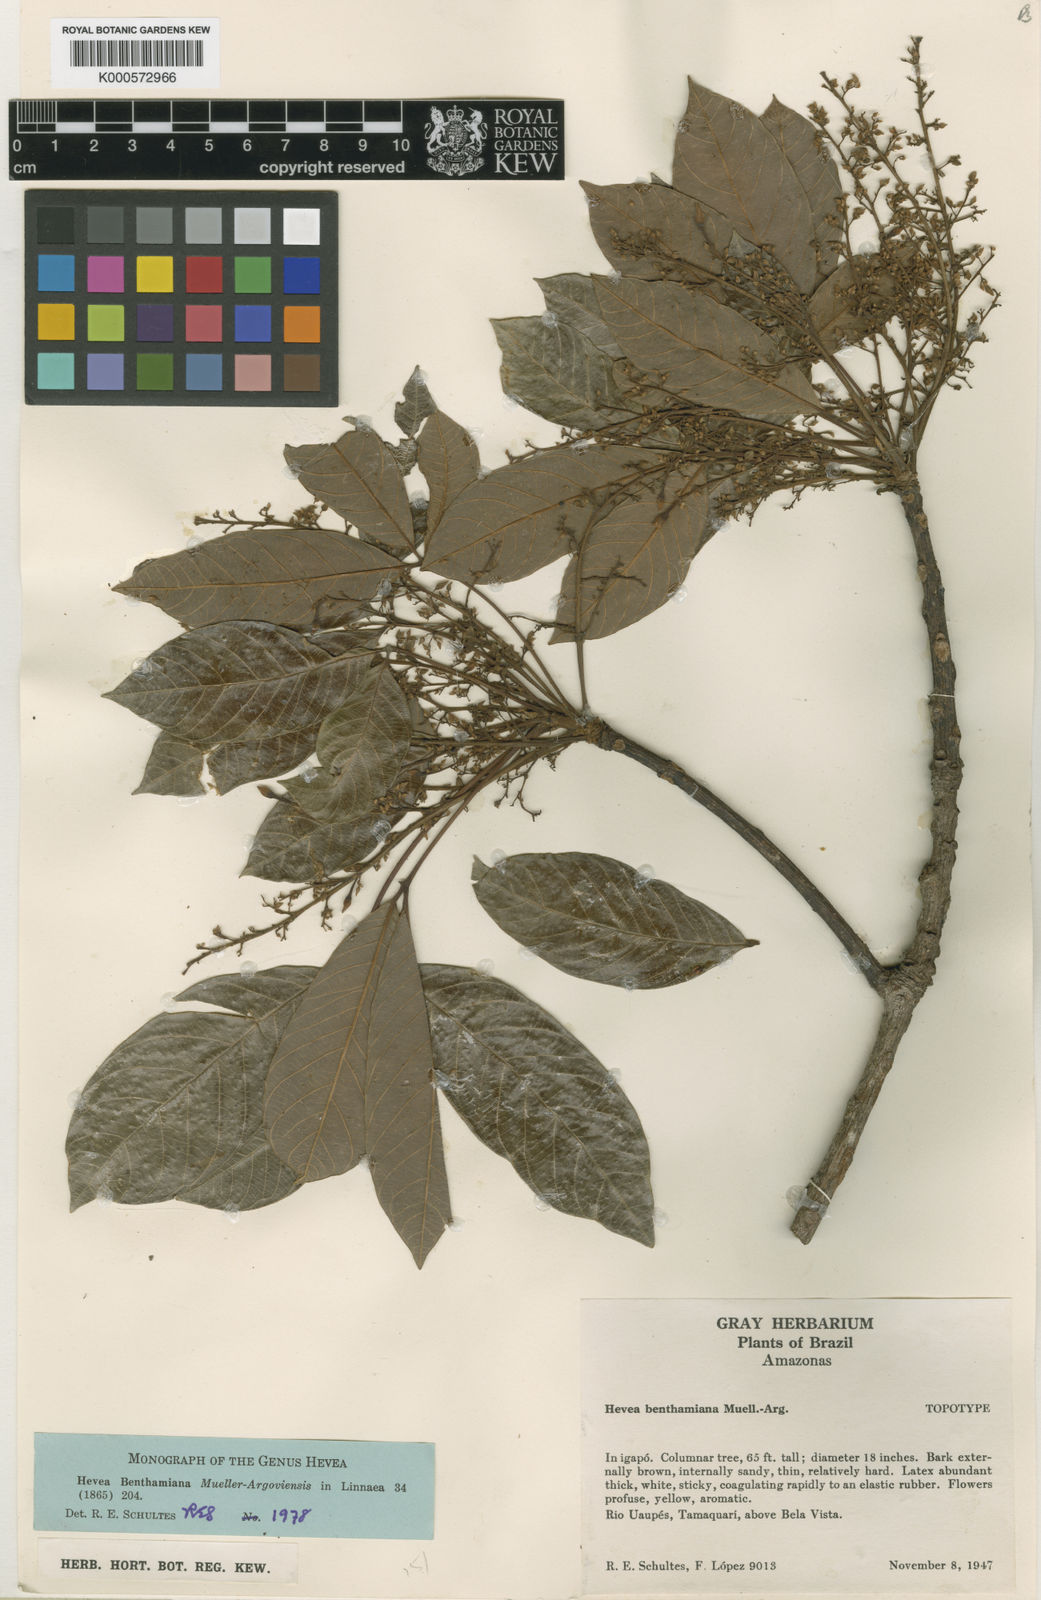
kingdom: Plantae
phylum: Tracheophyta
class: Magnoliopsida
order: Malpighiales
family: Euphorbiaceae
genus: Hevea
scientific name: Hevea benthamiana
